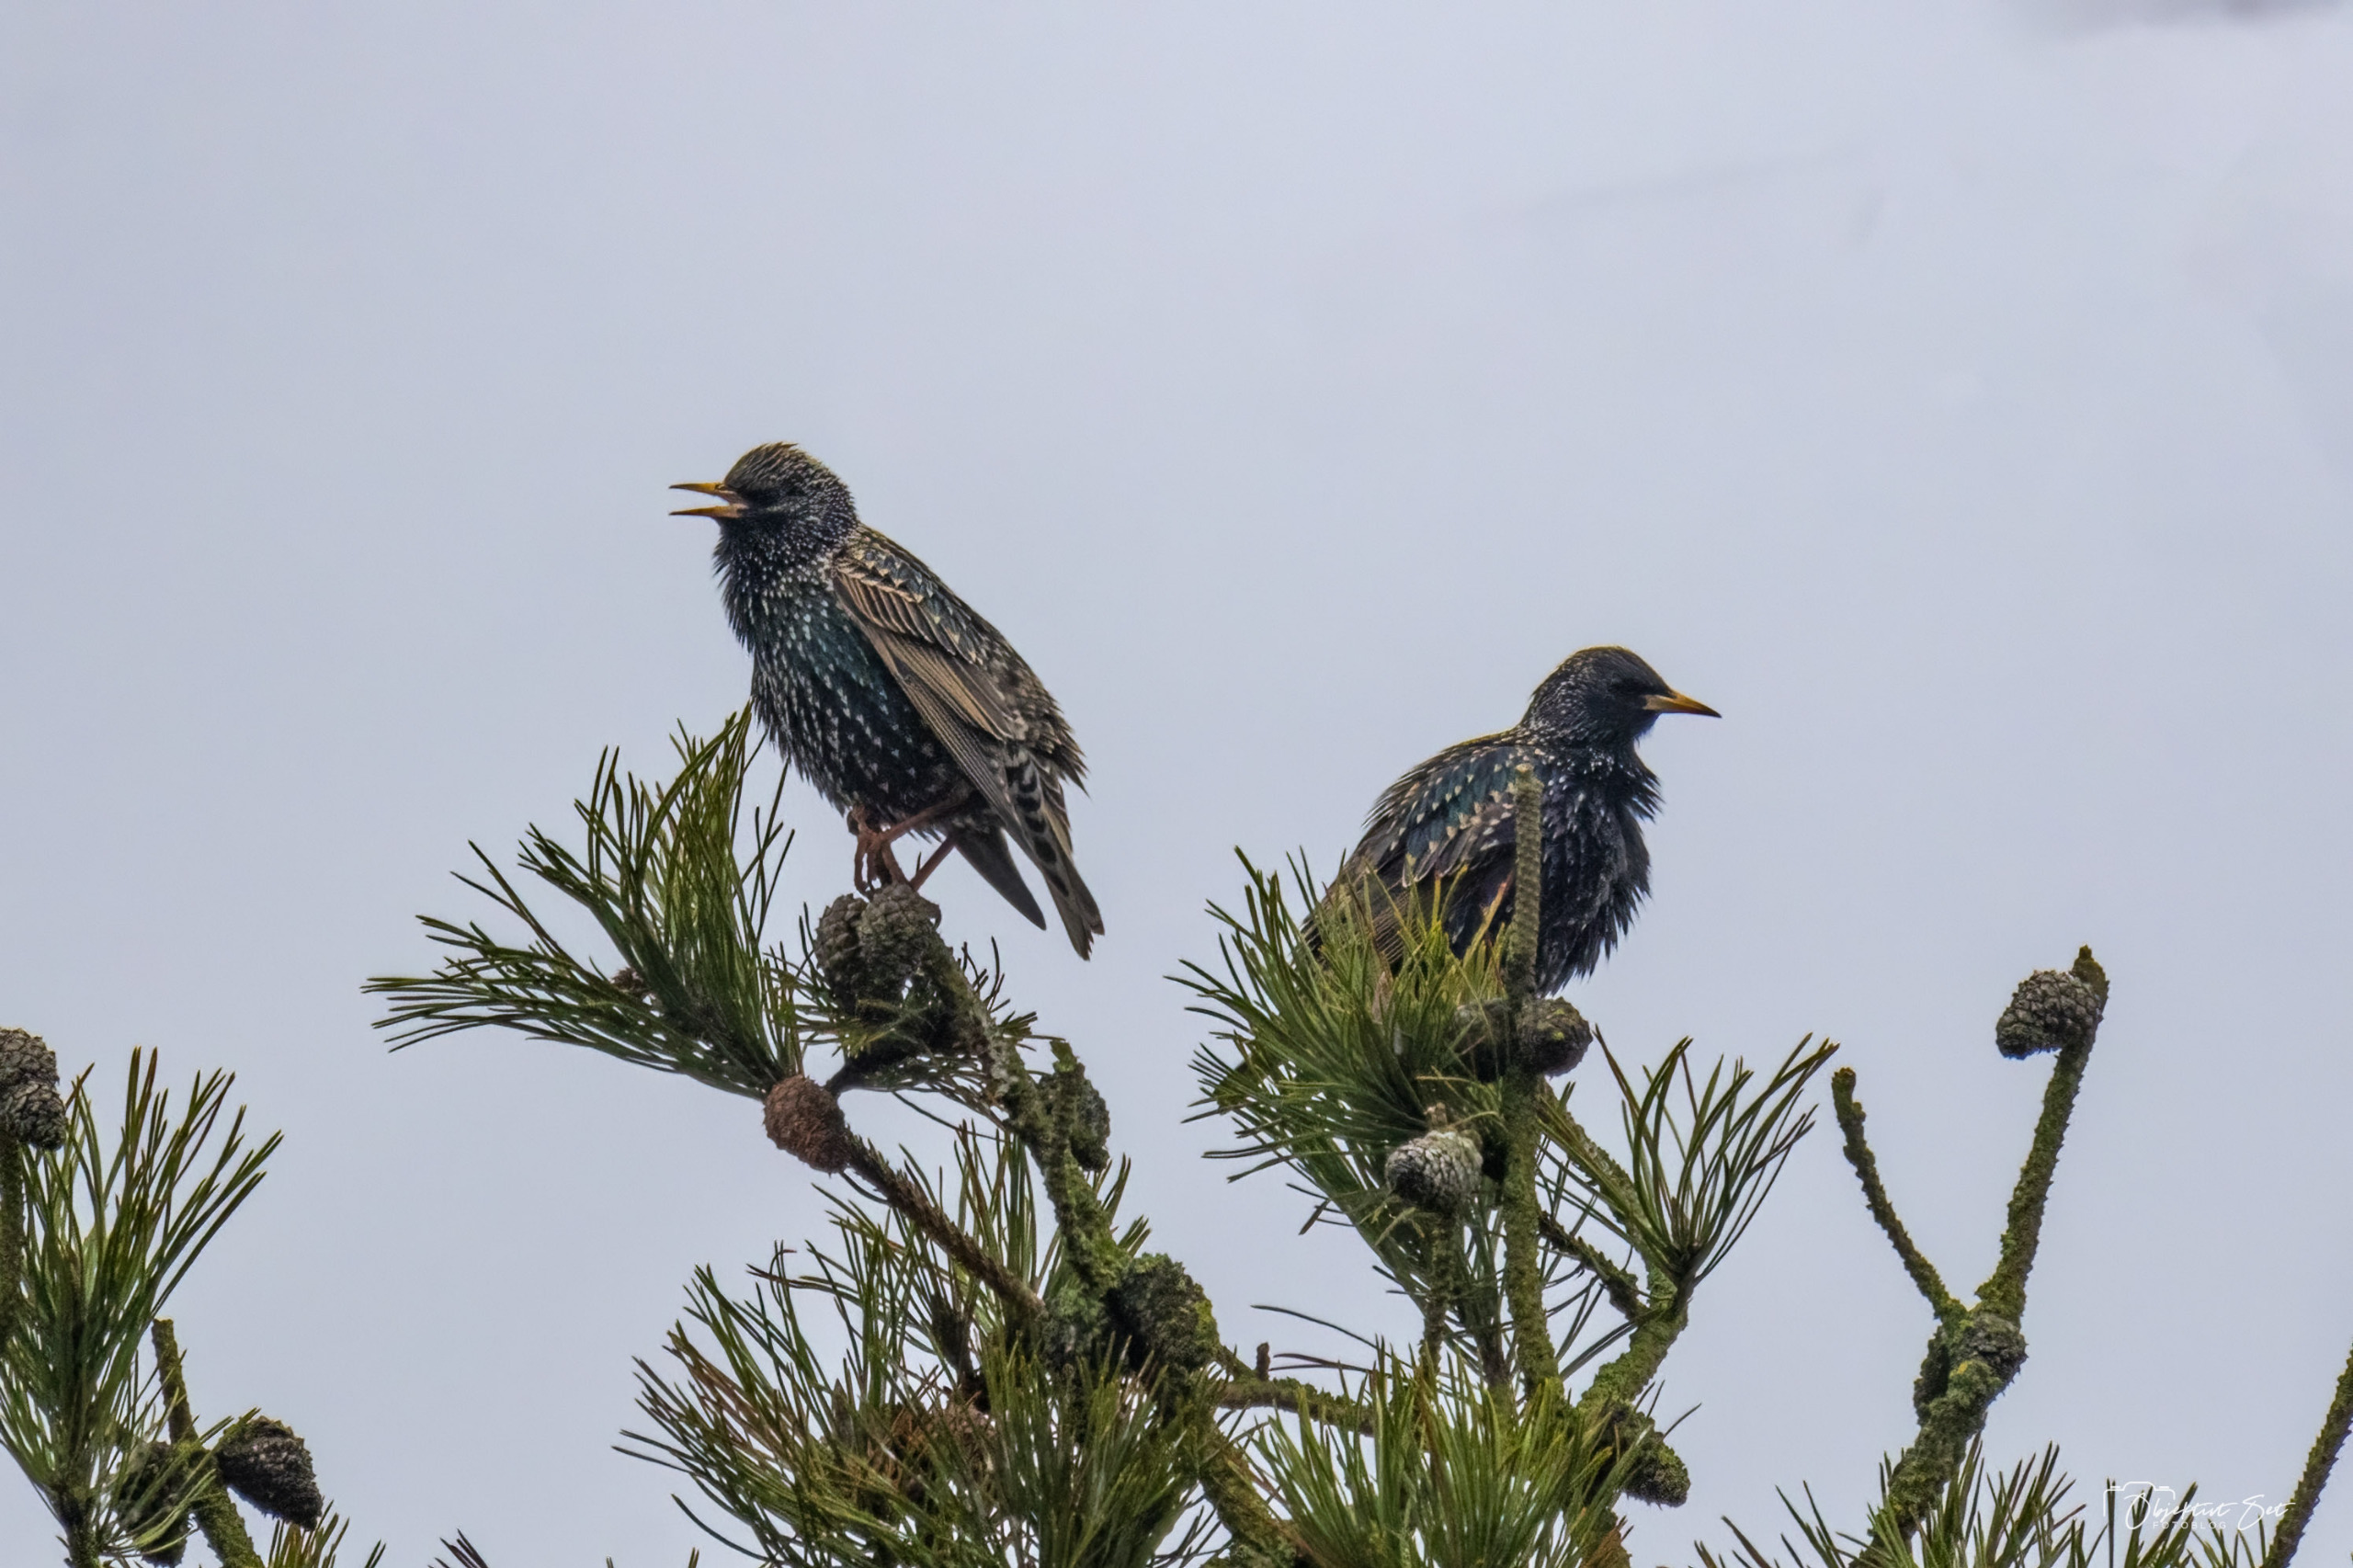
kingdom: Animalia
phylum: Chordata
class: Aves
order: Passeriformes
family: Sturnidae
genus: Sturnus
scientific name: Sturnus vulgaris
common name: Stær
